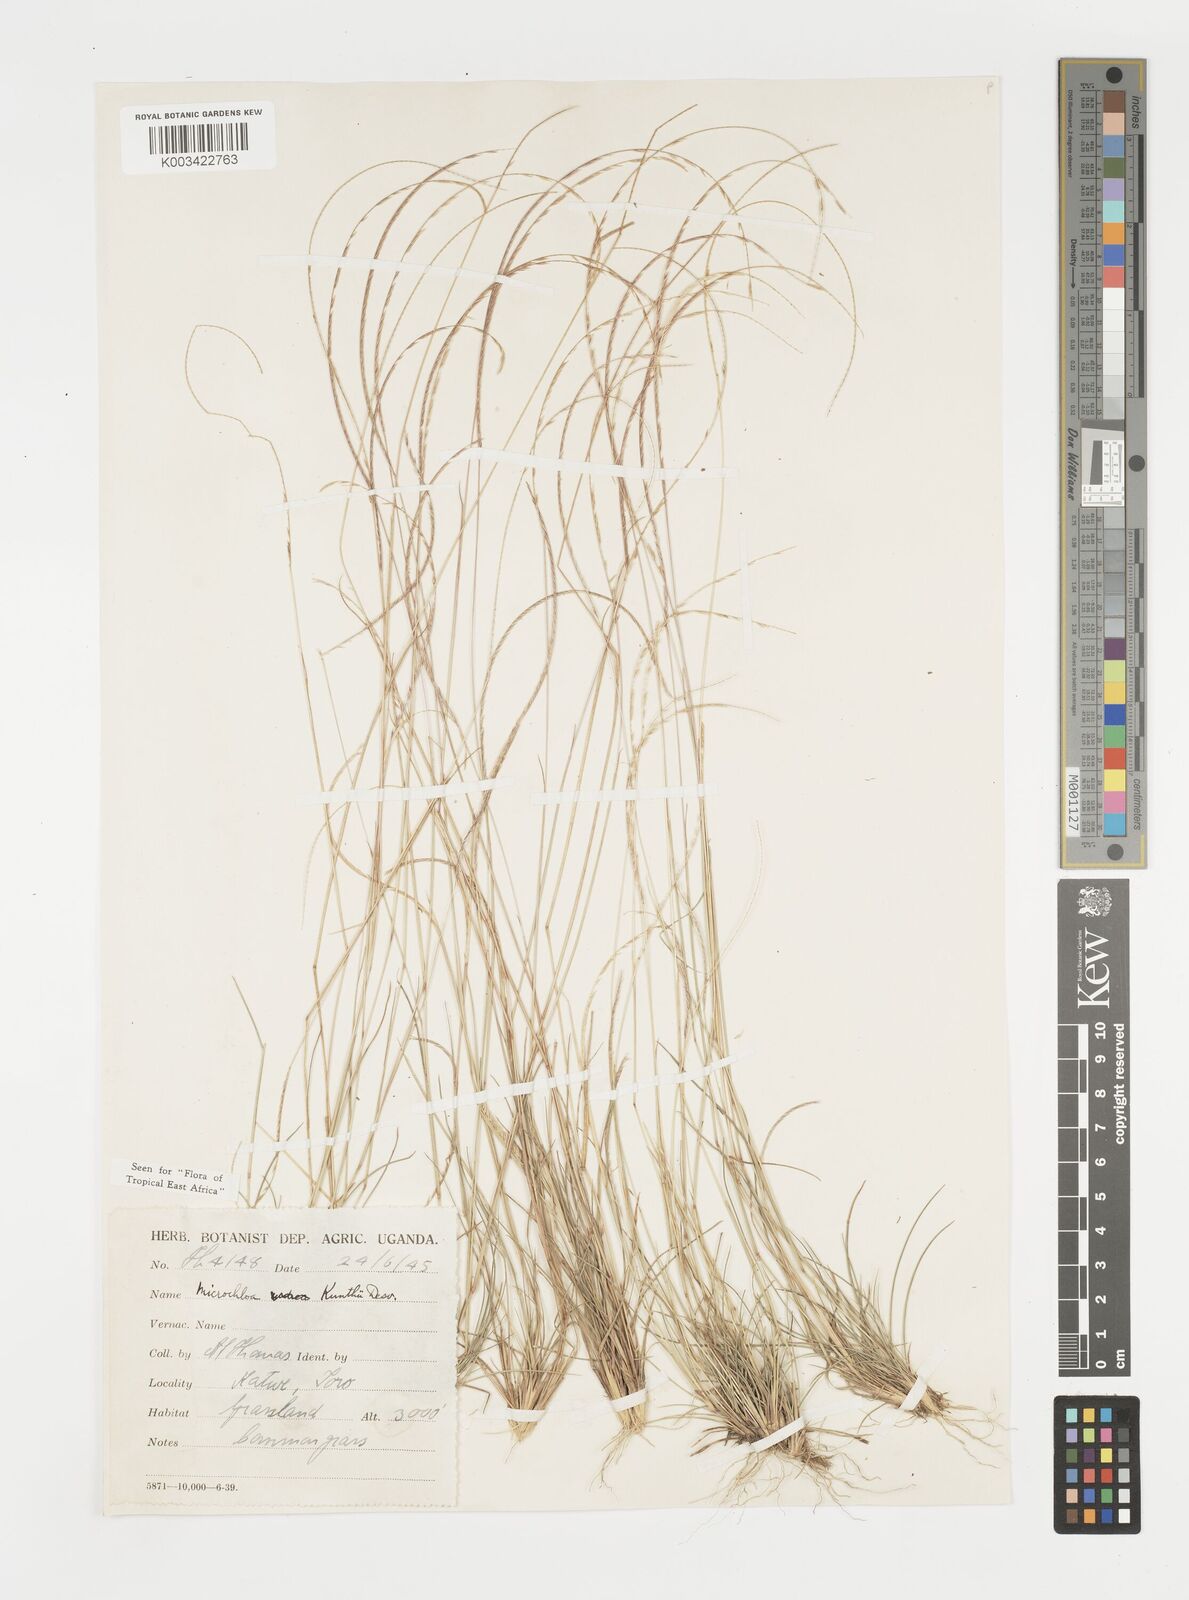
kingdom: Plantae
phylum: Tracheophyta
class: Liliopsida
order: Poales
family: Poaceae
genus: Microchloa
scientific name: Microchloa kunthii
